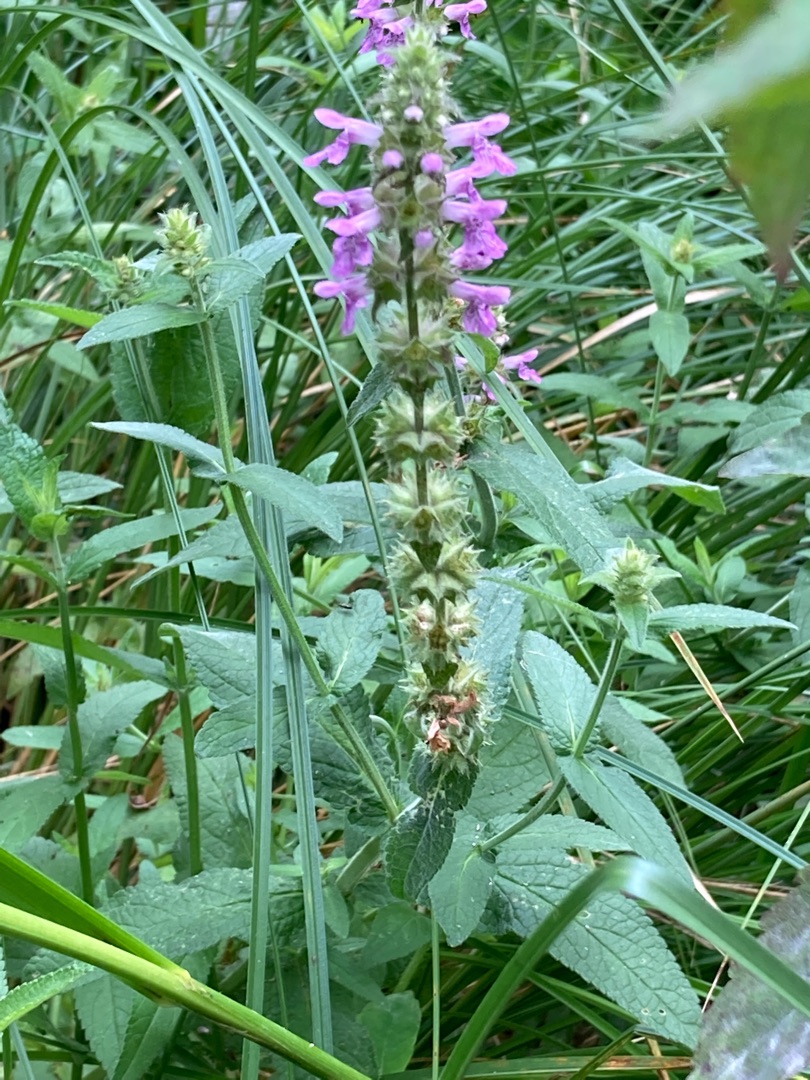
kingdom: Plantae
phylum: Tracheophyta
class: Magnoliopsida
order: Lamiales
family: Lamiaceae
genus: Stachys
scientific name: Stachys palustris
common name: Kær-galtetand
